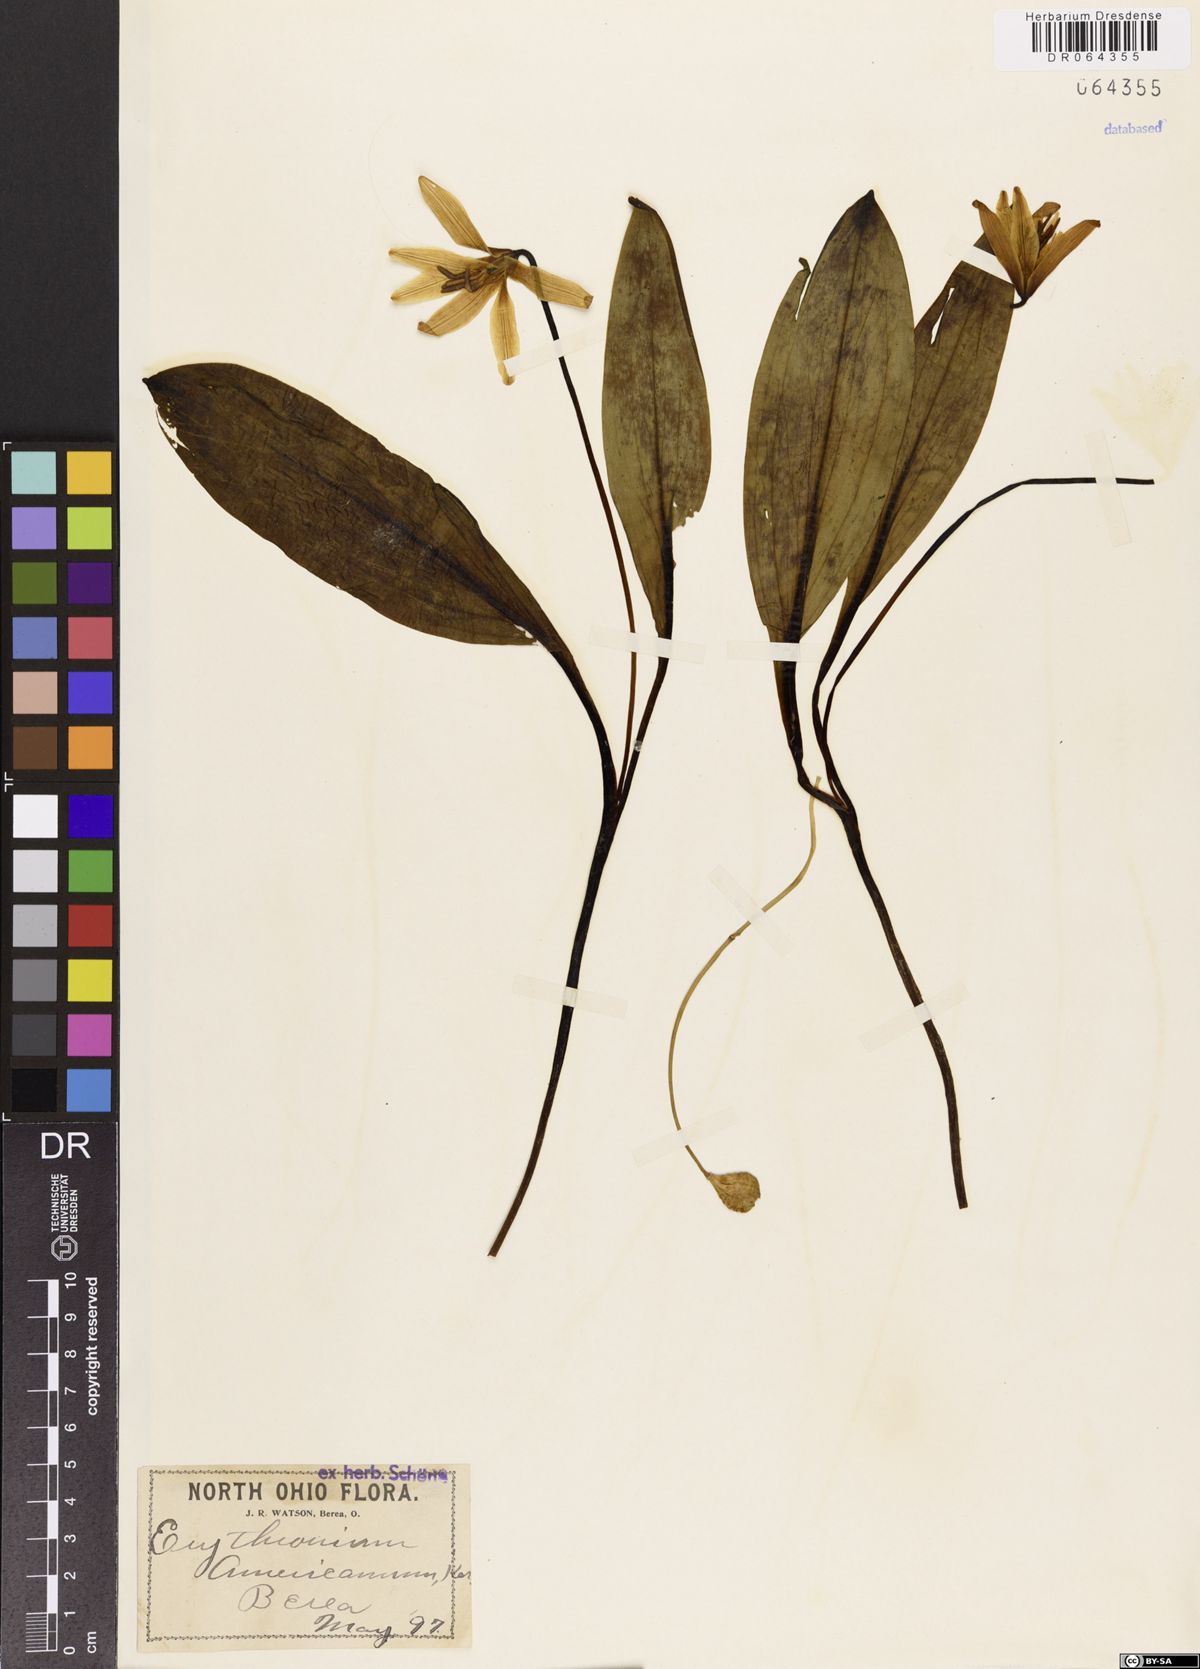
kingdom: Plantae
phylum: Tracheophyta
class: Liliopsida
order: Liliales
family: Liliaceae
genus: Erythronium
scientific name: Erythronium americanum
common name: Yellow adder's-tongue
